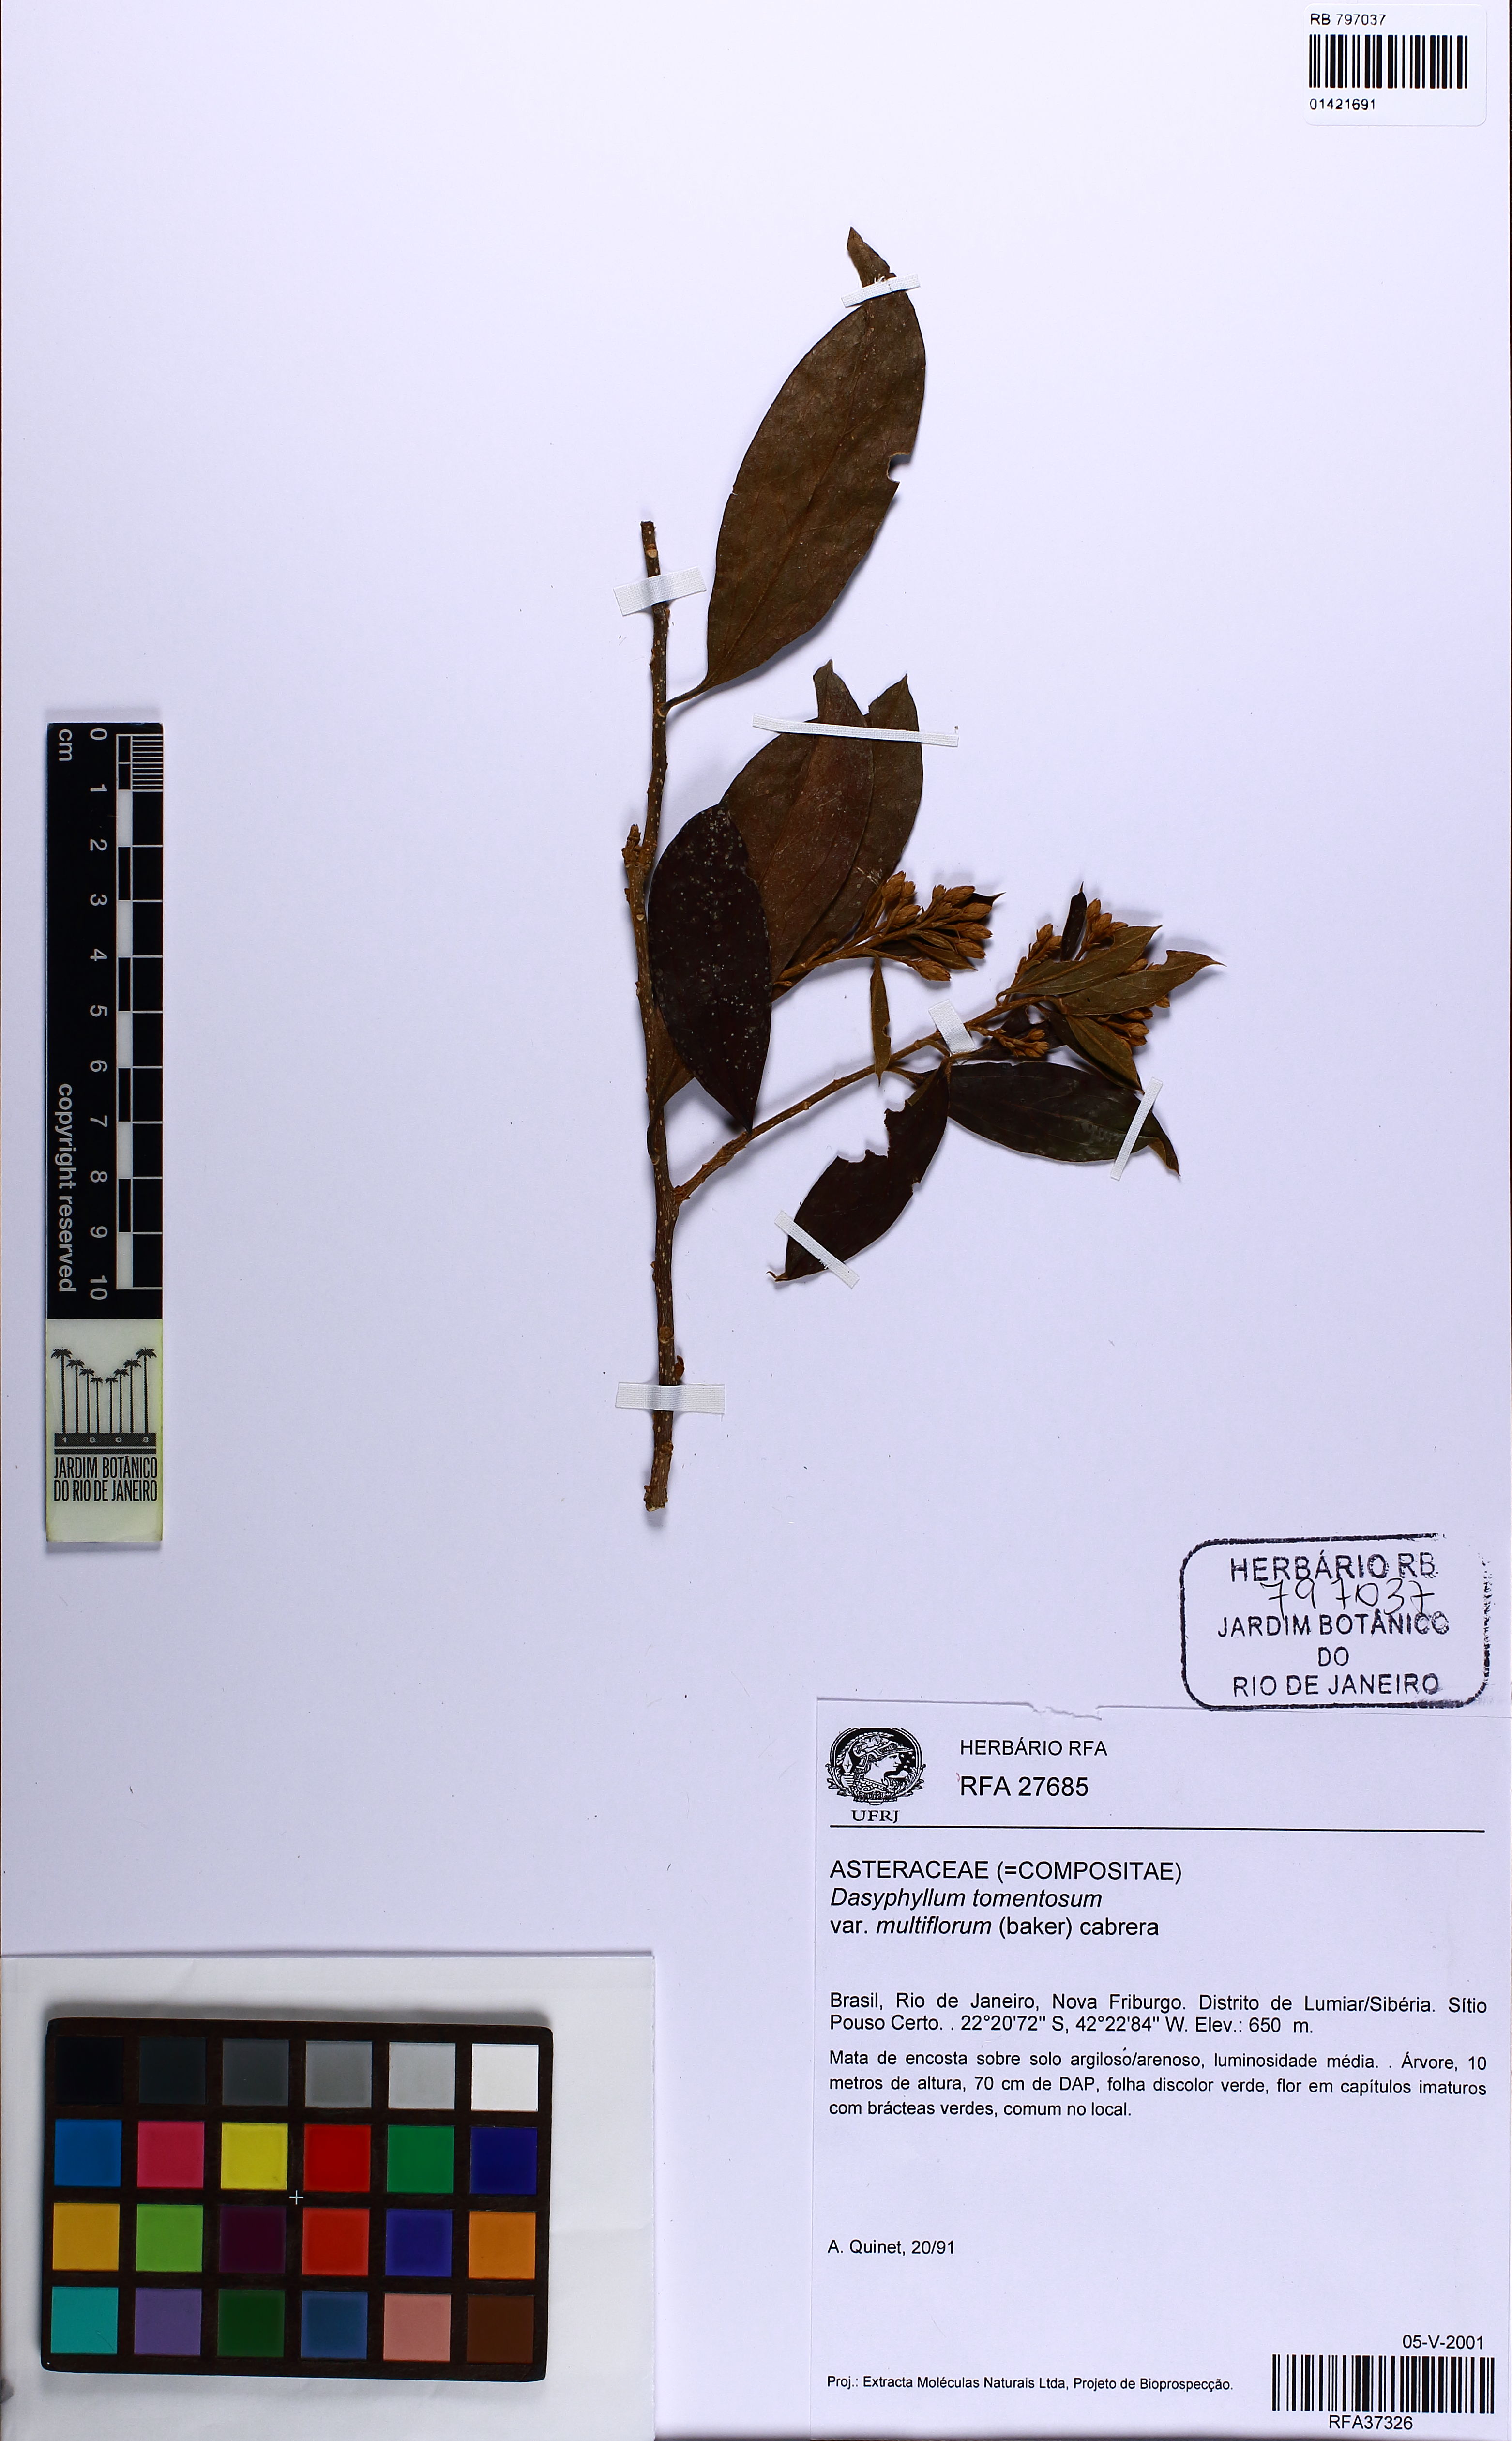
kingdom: Plantae
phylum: Tracheophyta
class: Magnoliopsida
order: Asterales
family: Asteraceae
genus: Dasyphyllum
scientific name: Dasyphyllum tomentosum
